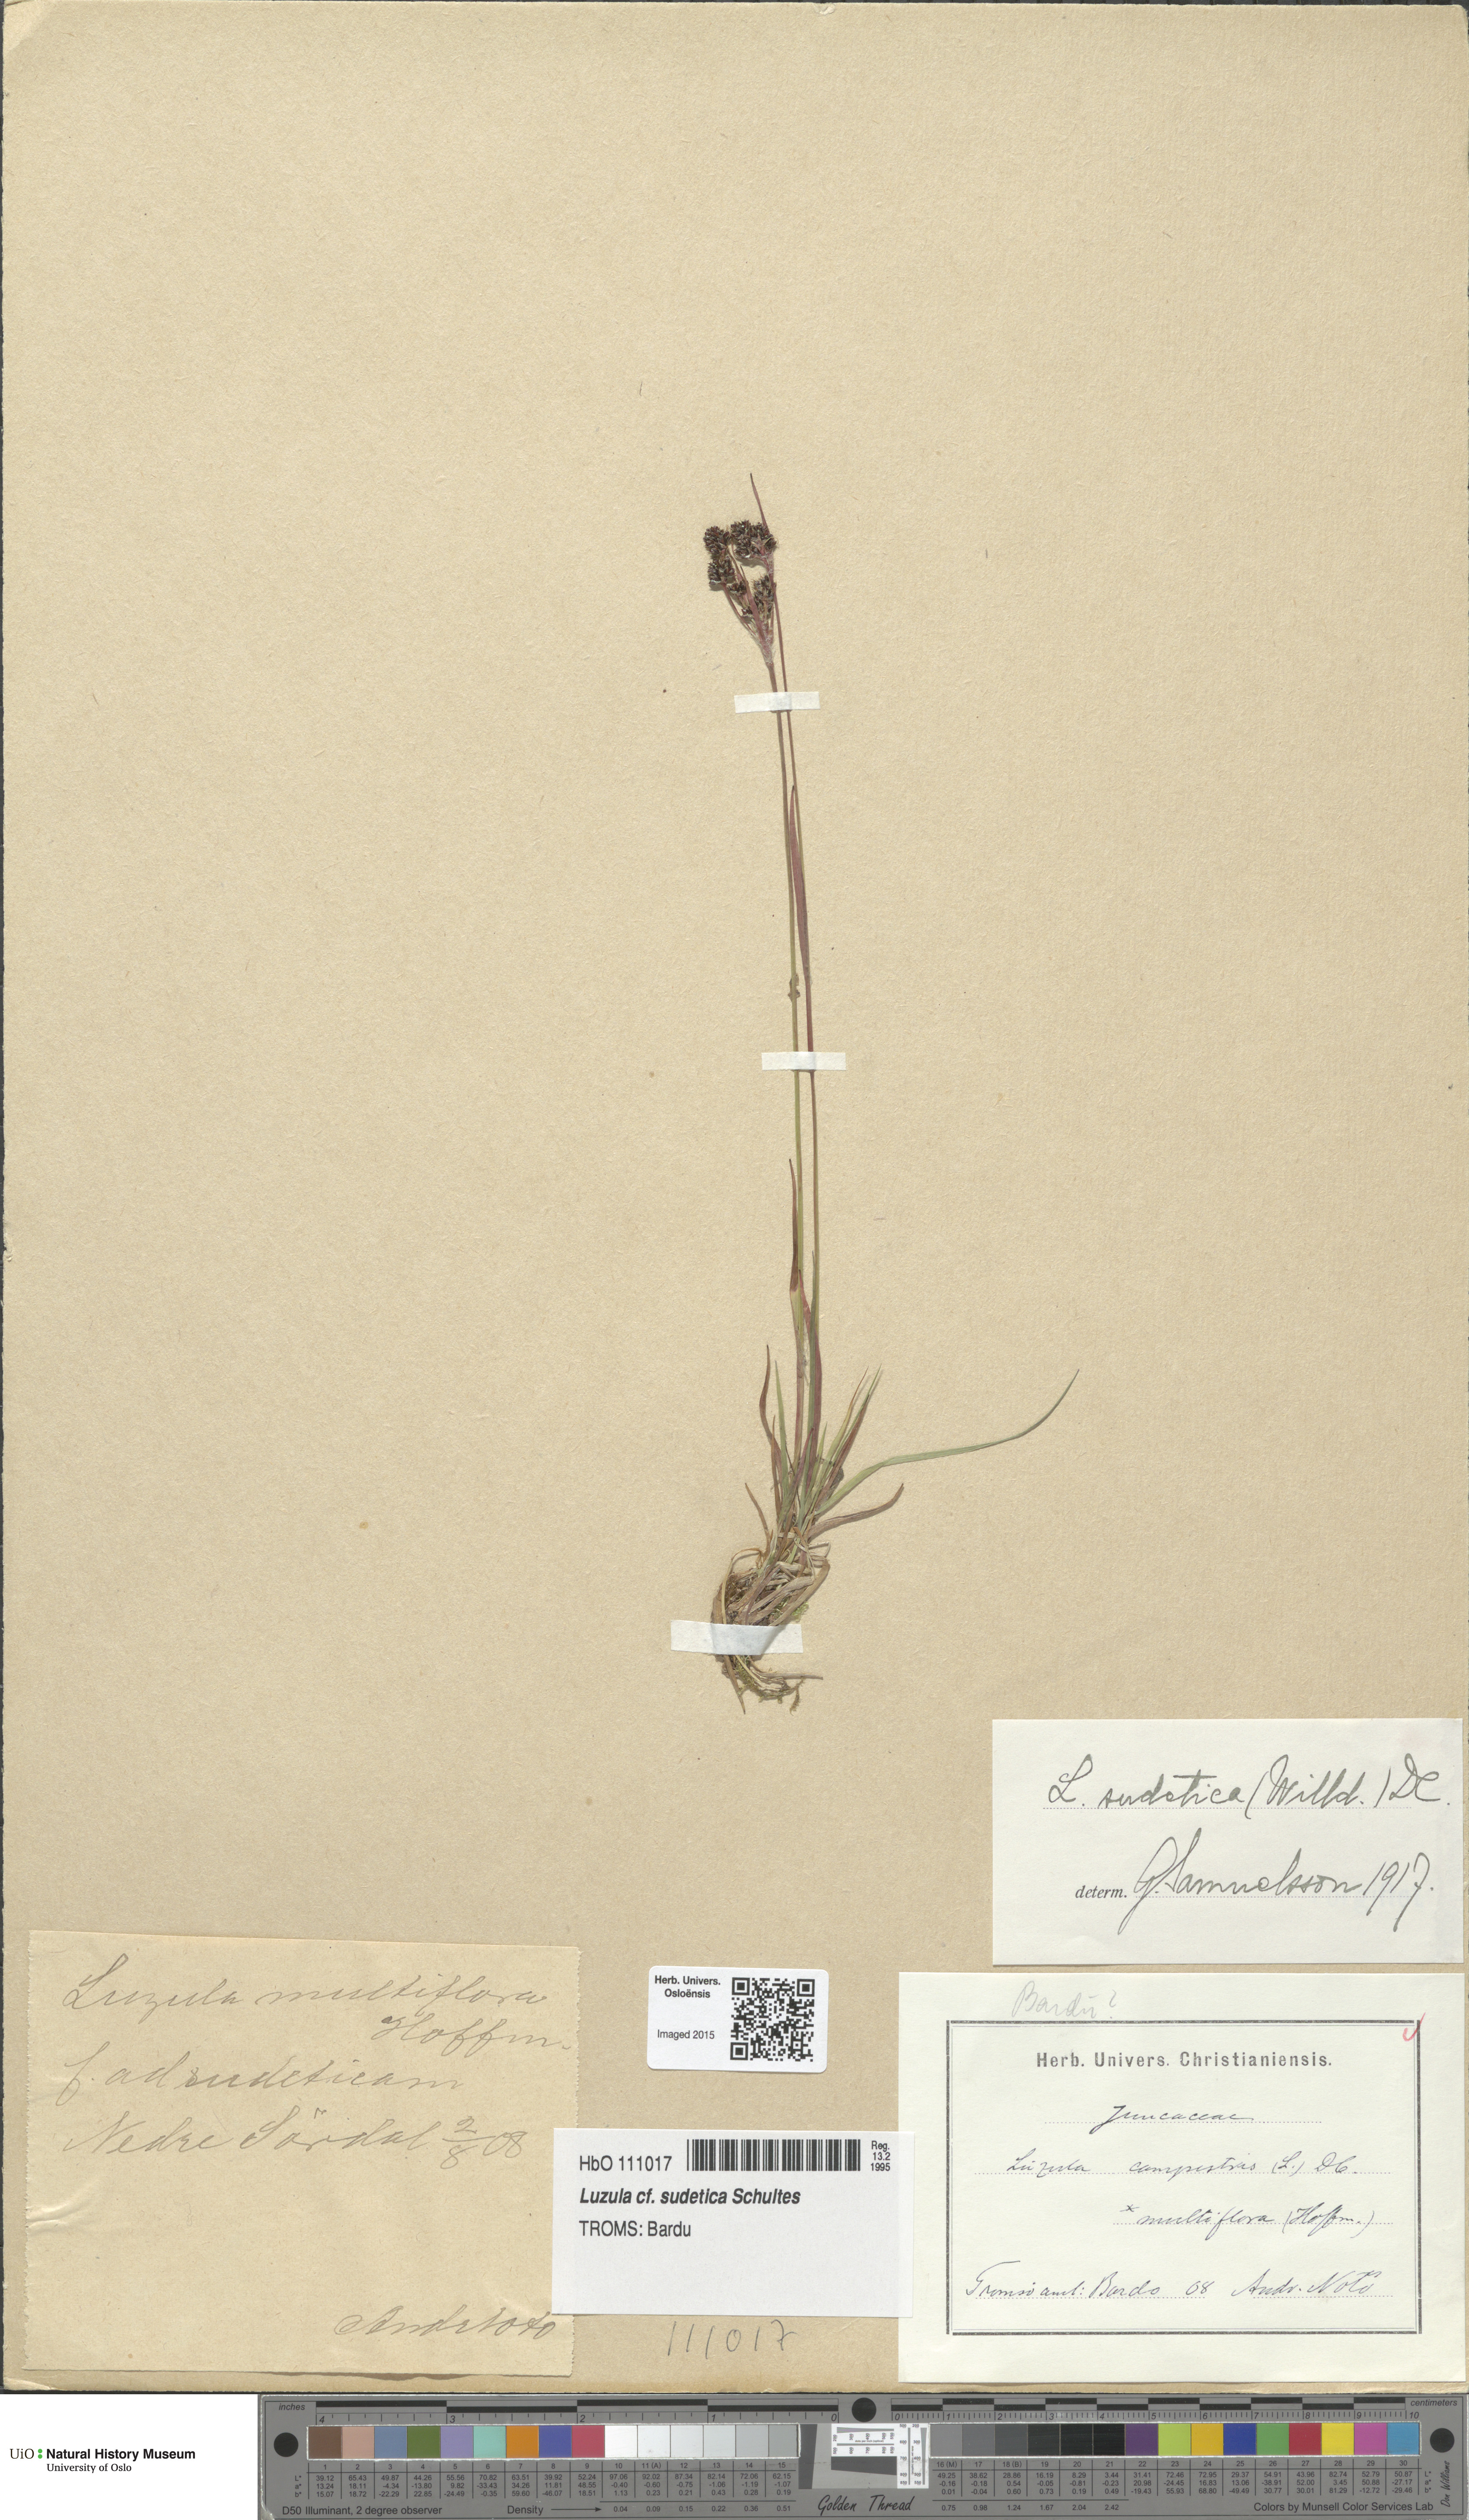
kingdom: Plantae
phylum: Tracheophyta
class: Liliopsida
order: Poales
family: Juncaceae
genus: Luzula
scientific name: Luzula sudetica
